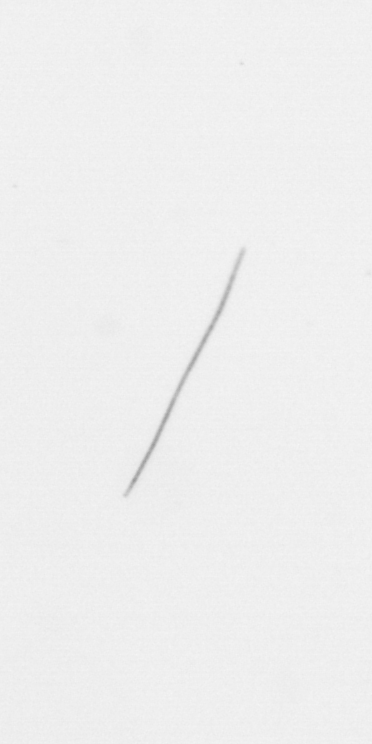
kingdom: Chromista
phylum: Ochrophyta
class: Bacillariophyceae
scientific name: Bacillariophyceae
